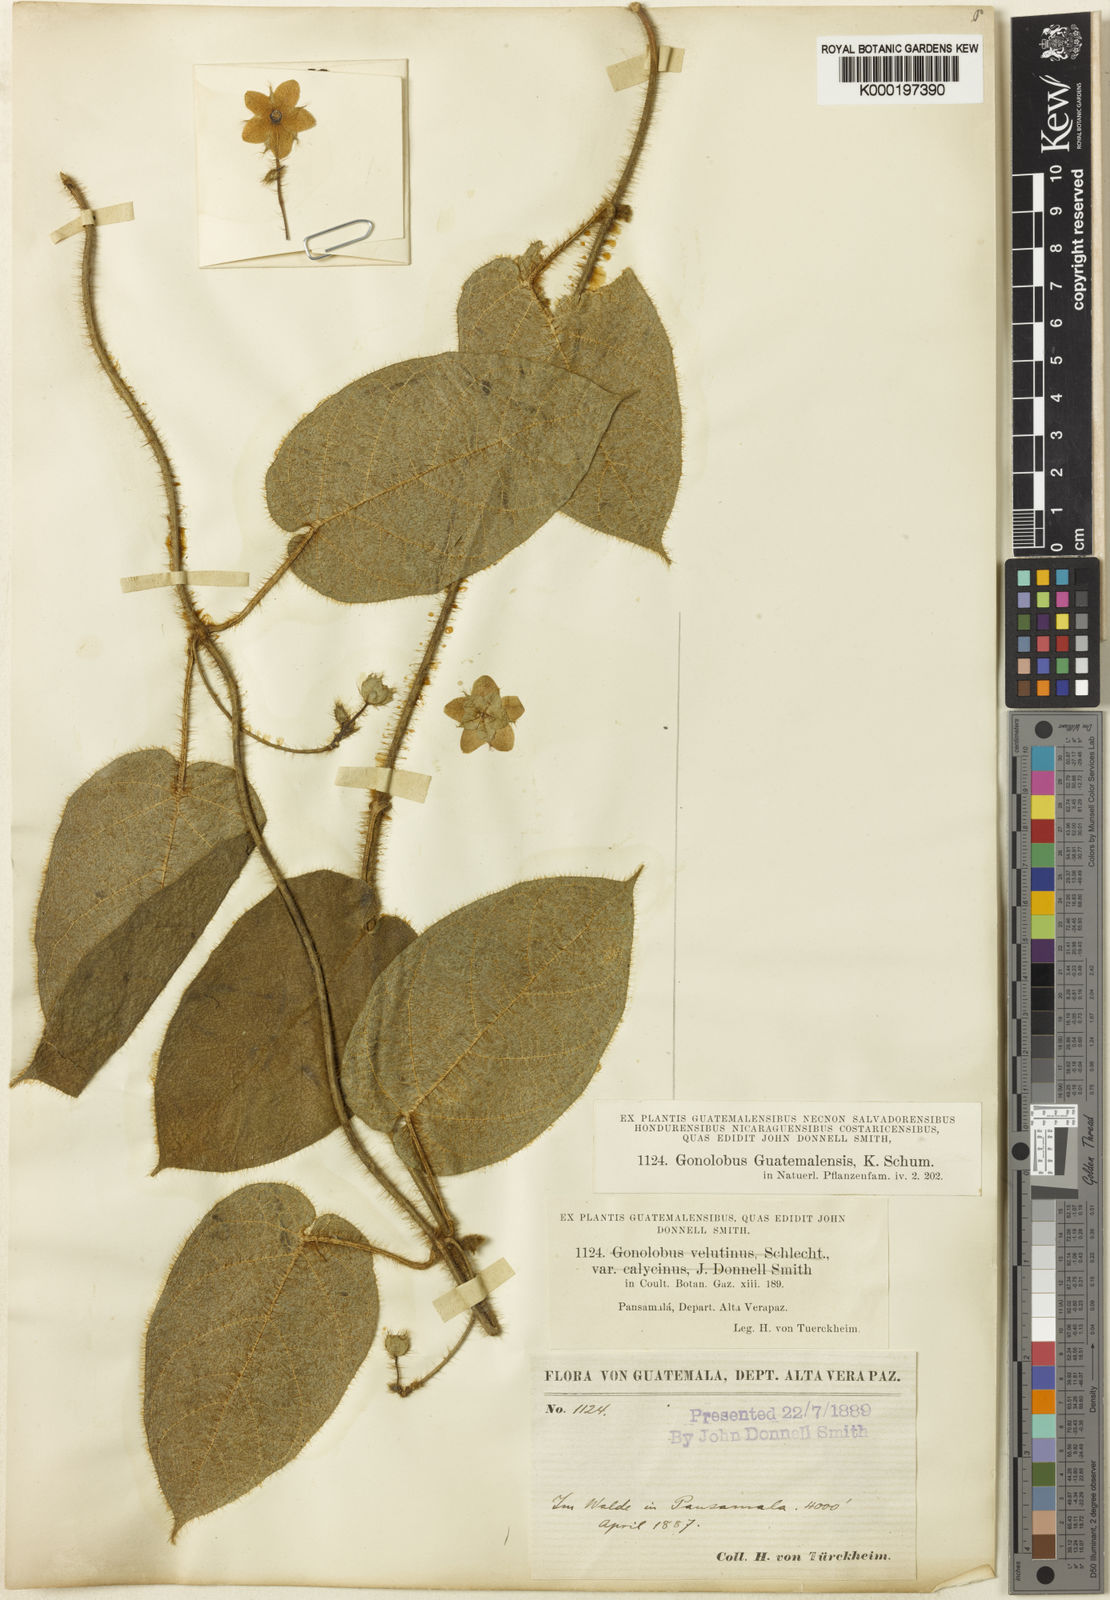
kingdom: Plantae
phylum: Tracheophyta
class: Magnoliopsida
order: Gentianales
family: Apocynaceae
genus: Polystemma
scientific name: Polystemma guatemalense
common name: Arborescente rattan
